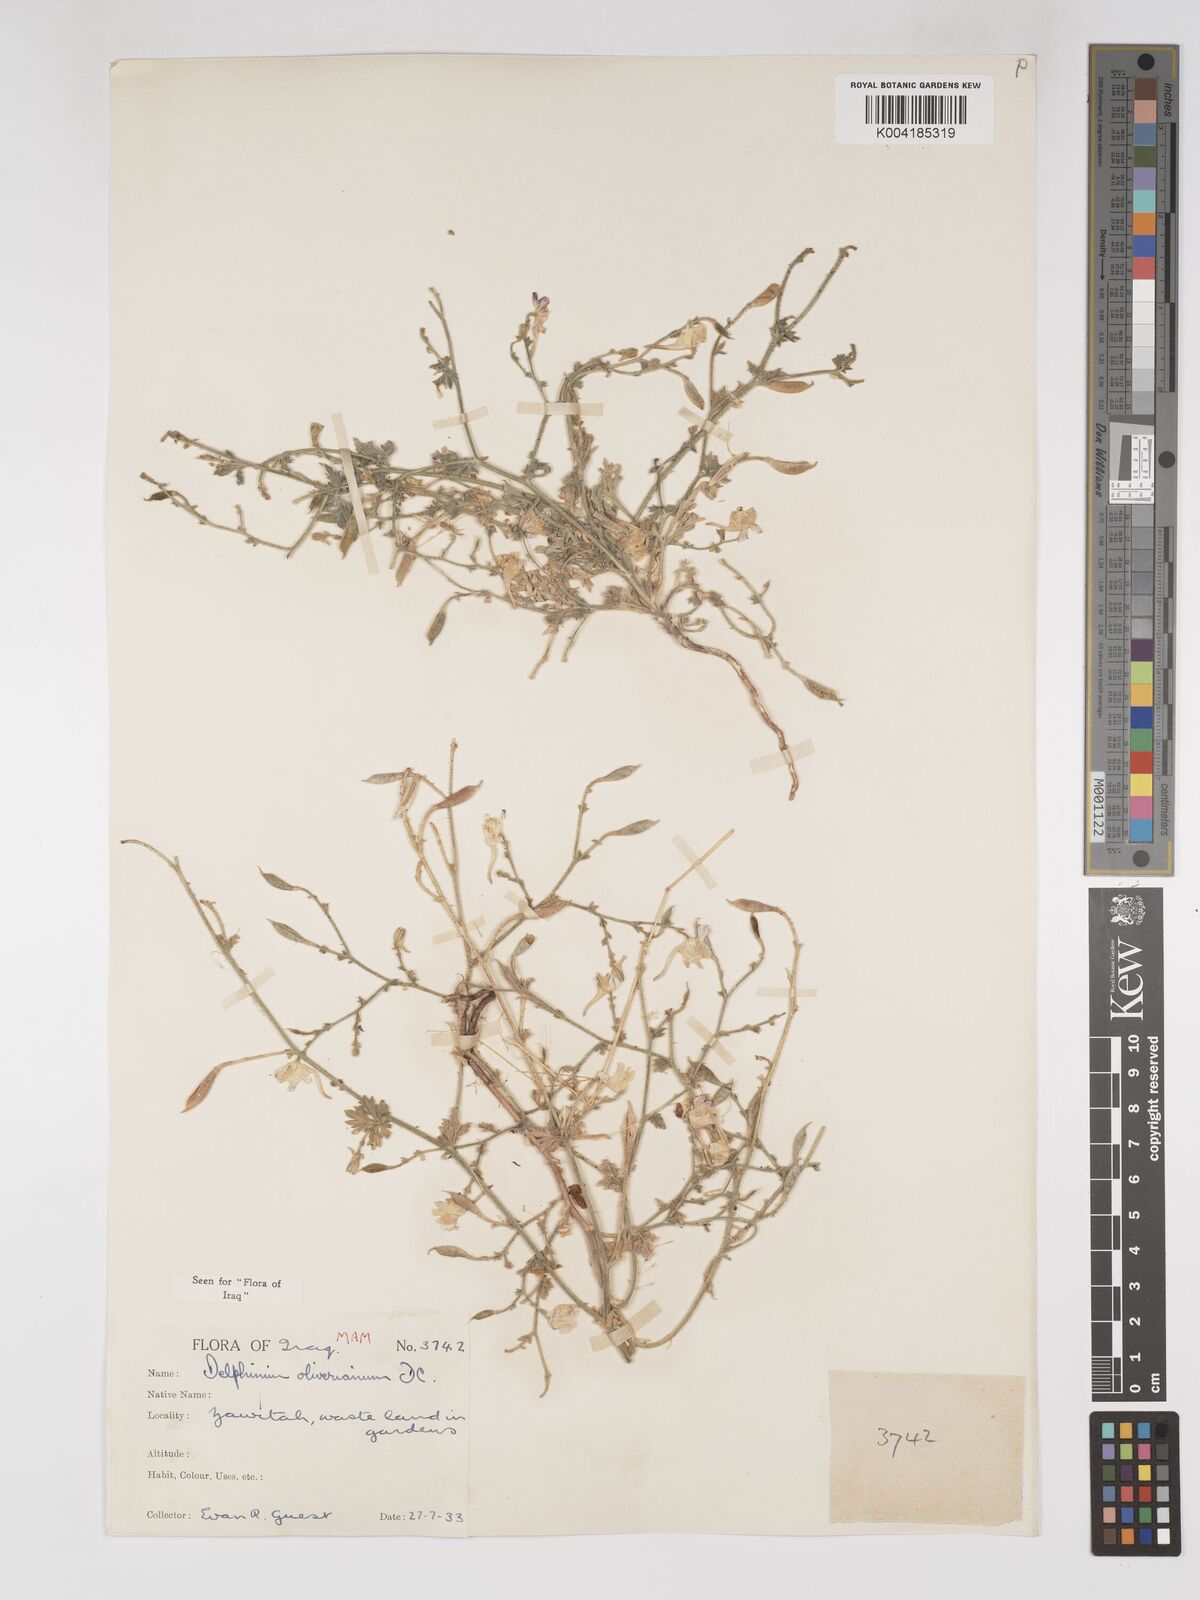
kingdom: Plantae
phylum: Tracheophyta
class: Magnoliopsida
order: Ranunculales
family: Ranunculaceae
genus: Delphinium
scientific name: Delphinium oliverianum
